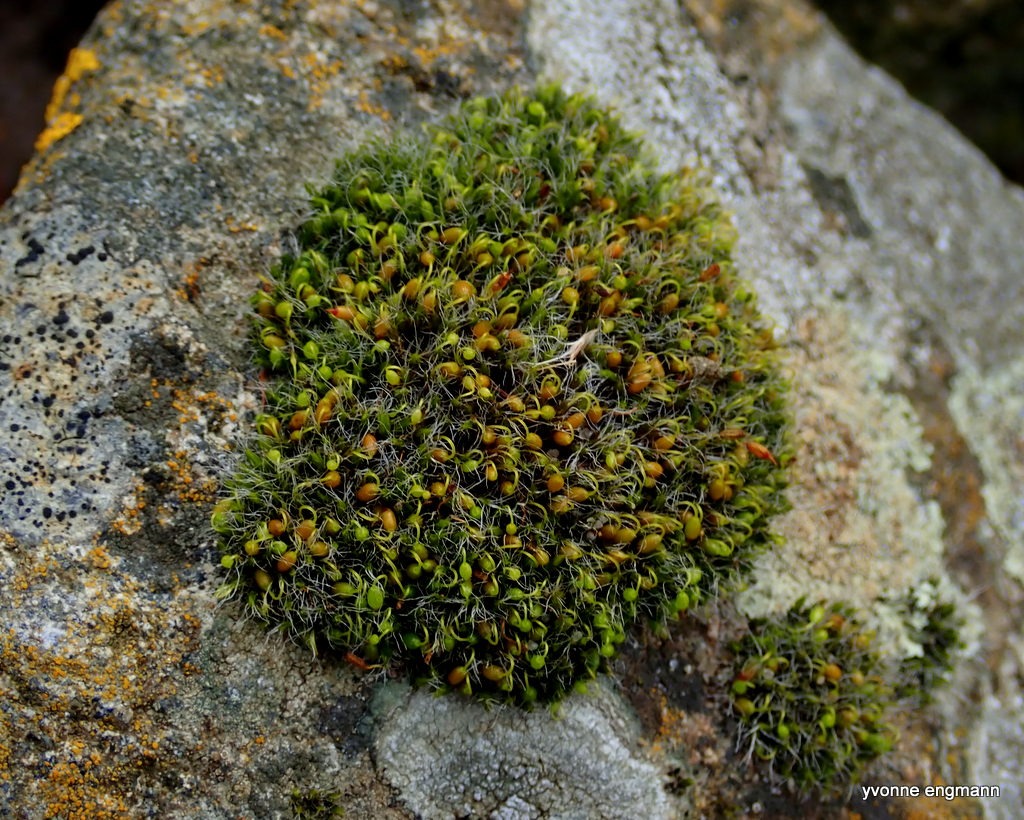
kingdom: Plantae
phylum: Bryophyta
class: Bryopsida
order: Grimmiales
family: Grimmiaceae
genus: Grimmia
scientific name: Grimmia pulvinata
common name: Pude-gråmos
